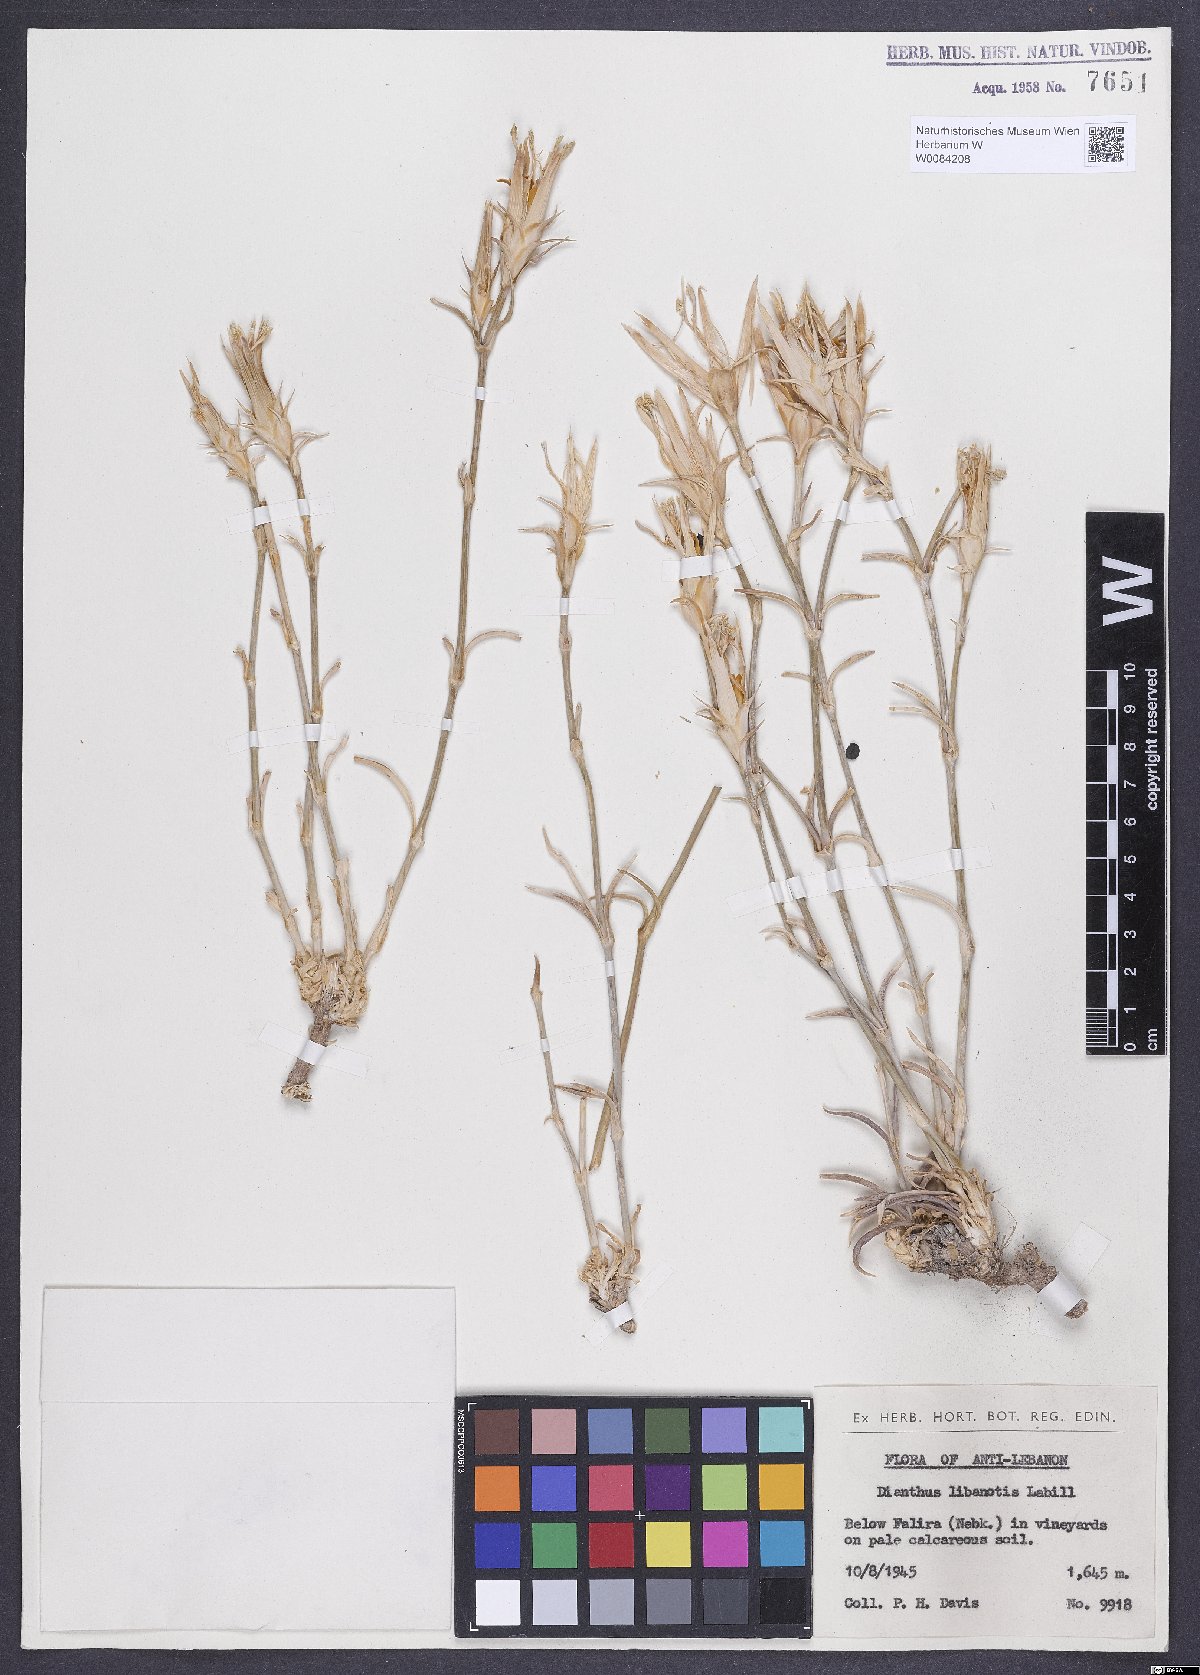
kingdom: Plantae
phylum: Tracheophyta
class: Magnoliopsida
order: Caryophyllales
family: Caryophyllaceae
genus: Dianthus
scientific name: Dianthus libanotis
